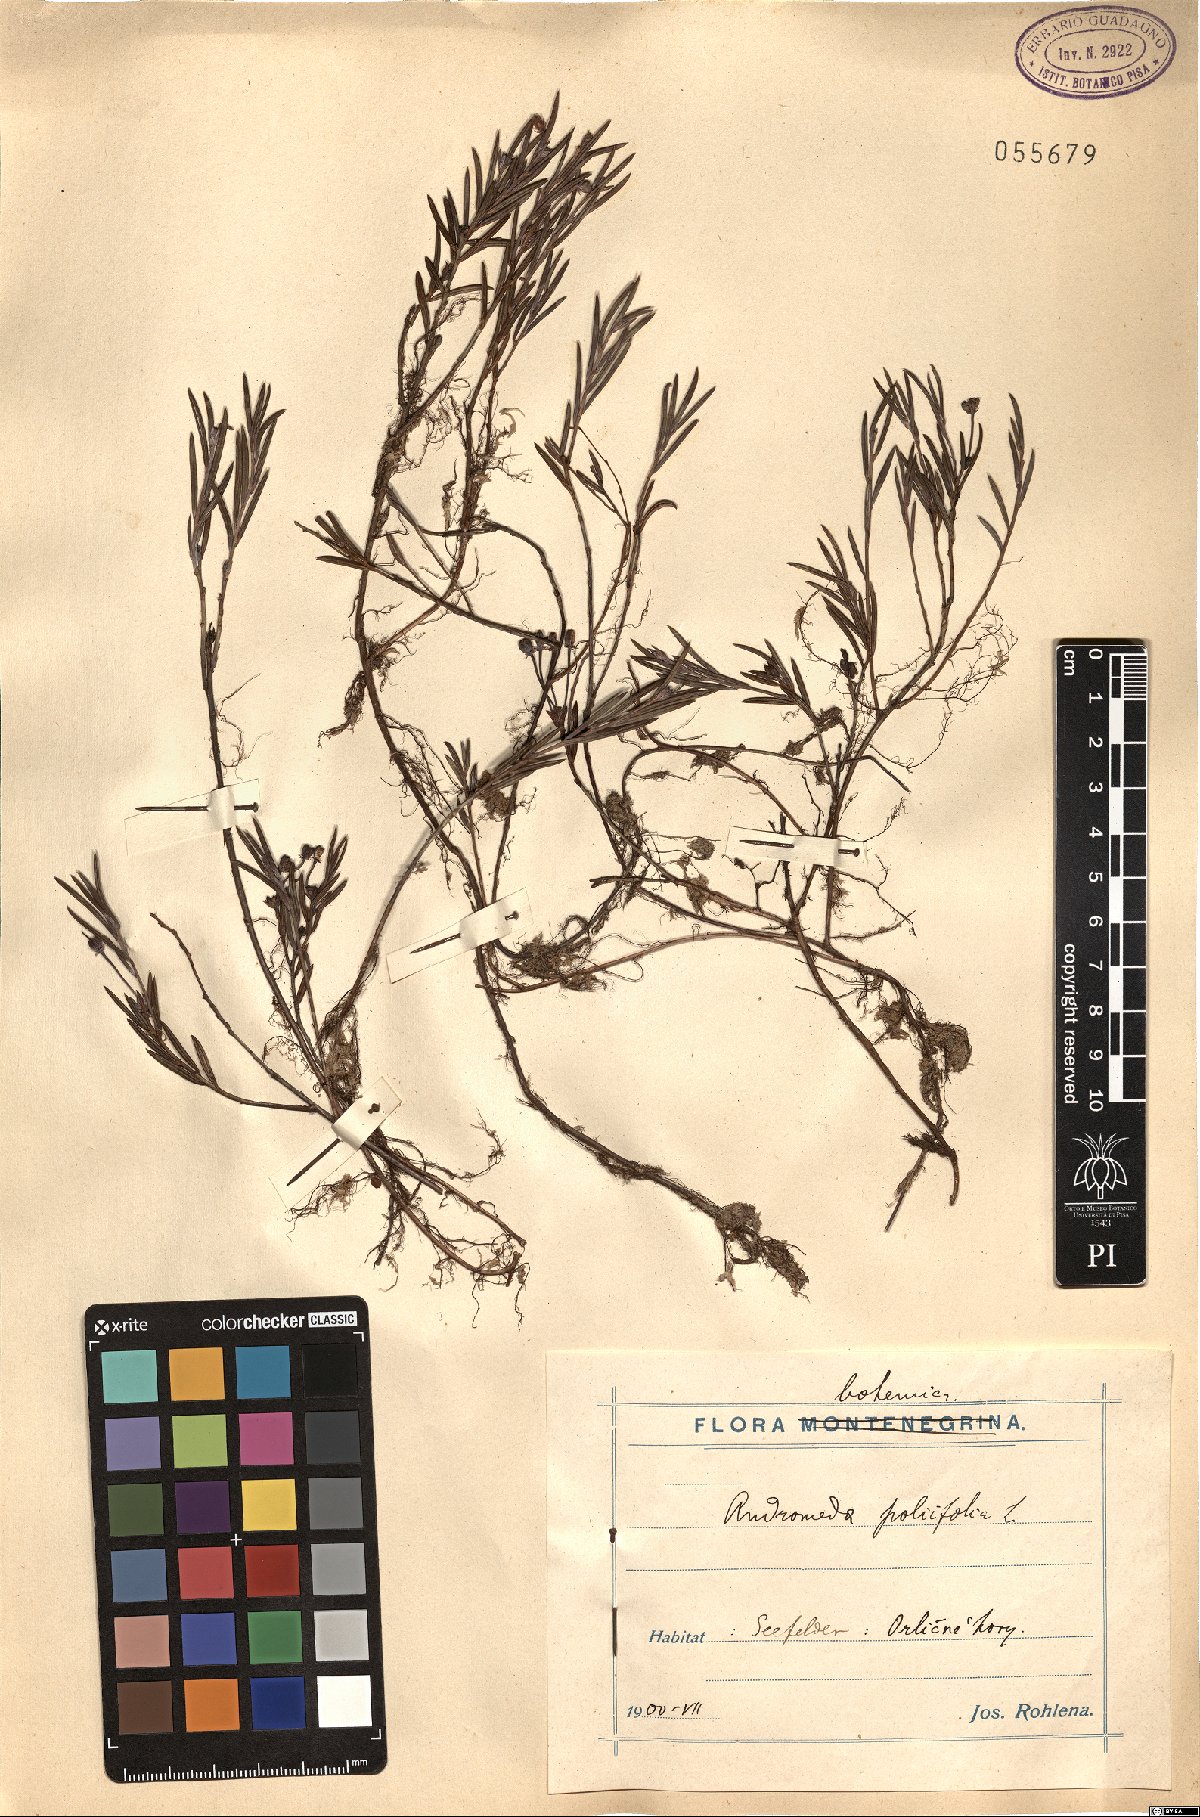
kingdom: Plantae
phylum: Tracheophyta
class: Magnoliopsida
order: Ericales
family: Ericaceae
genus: Andromeda
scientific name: Andromeda polifolia
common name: Bog-rosemary
